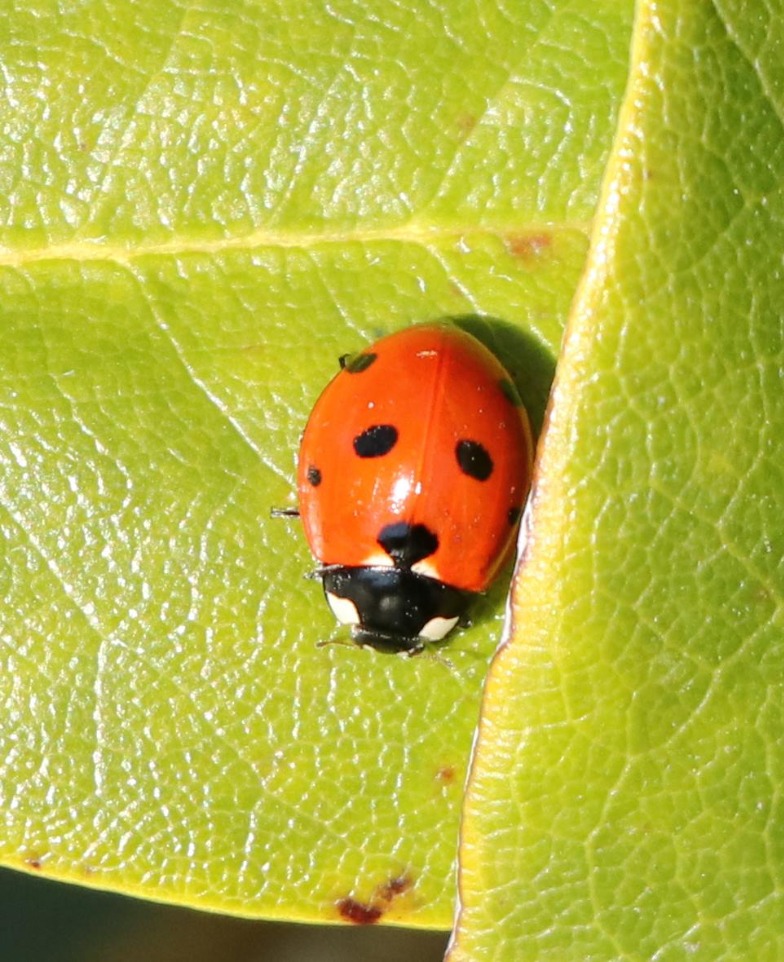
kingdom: Animalia
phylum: Arthropoda
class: Insecta
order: Coleoptera
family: Coccinellidae
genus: Coccinella
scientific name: Coccinella septempunctata
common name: Syvplettet mariehøne
